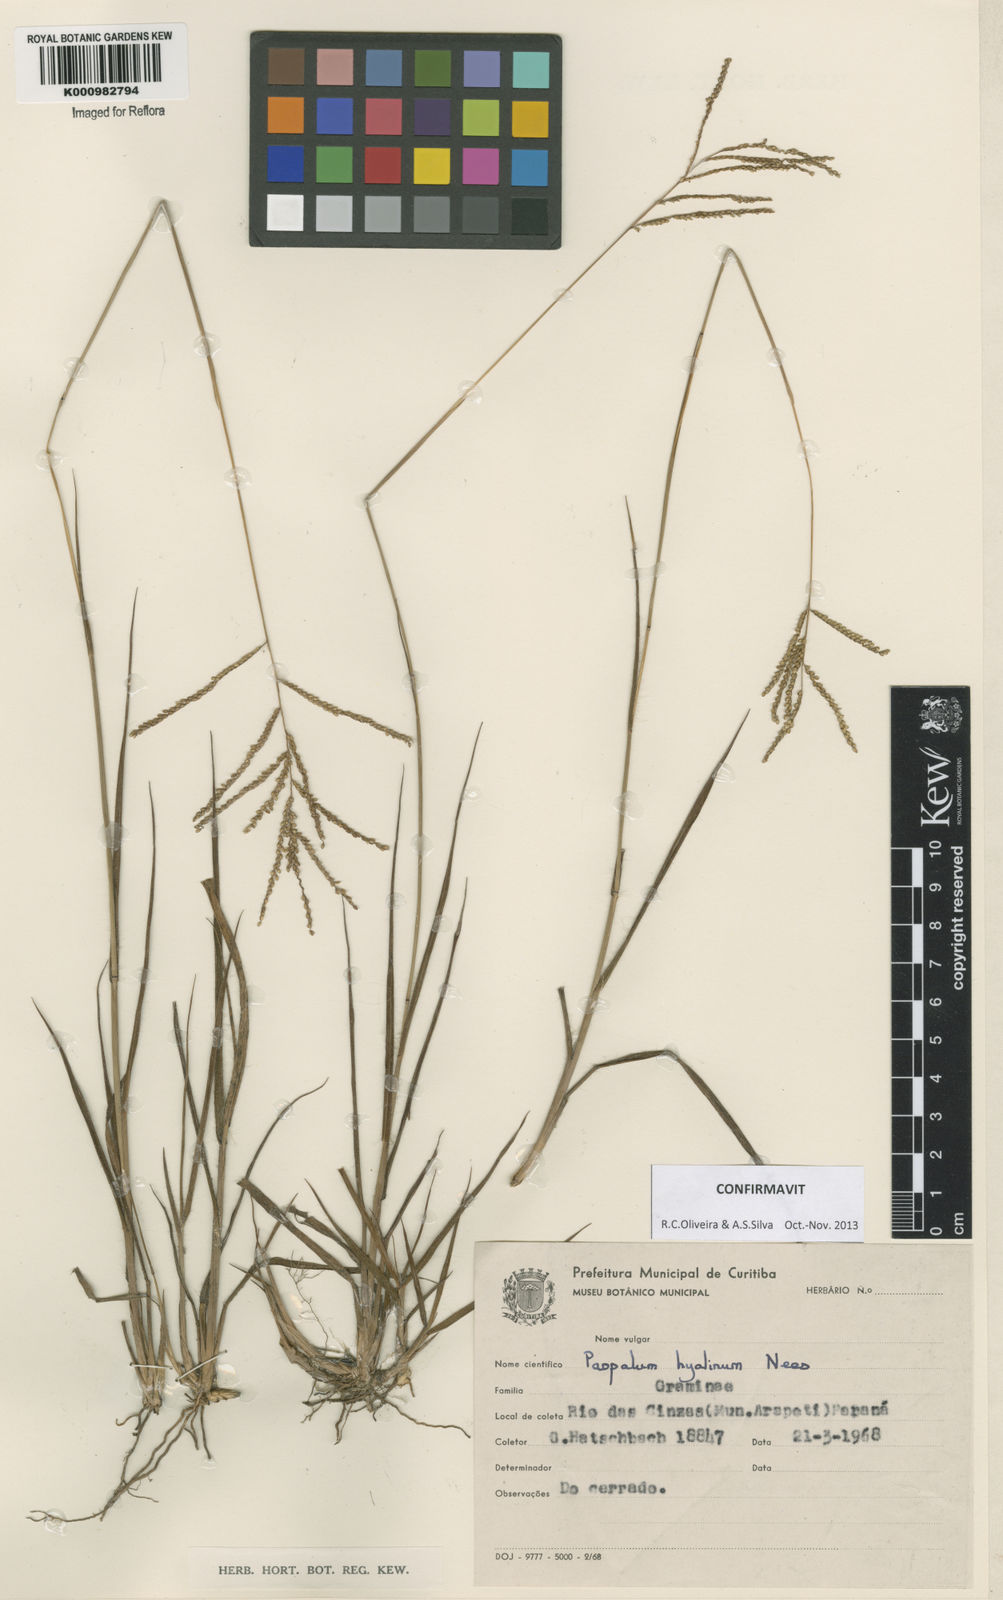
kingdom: Plantae
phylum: Tracheophyta
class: Liliopsida
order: Poales
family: Poaceae
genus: Paspalum
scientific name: Paspalum hyalinum
